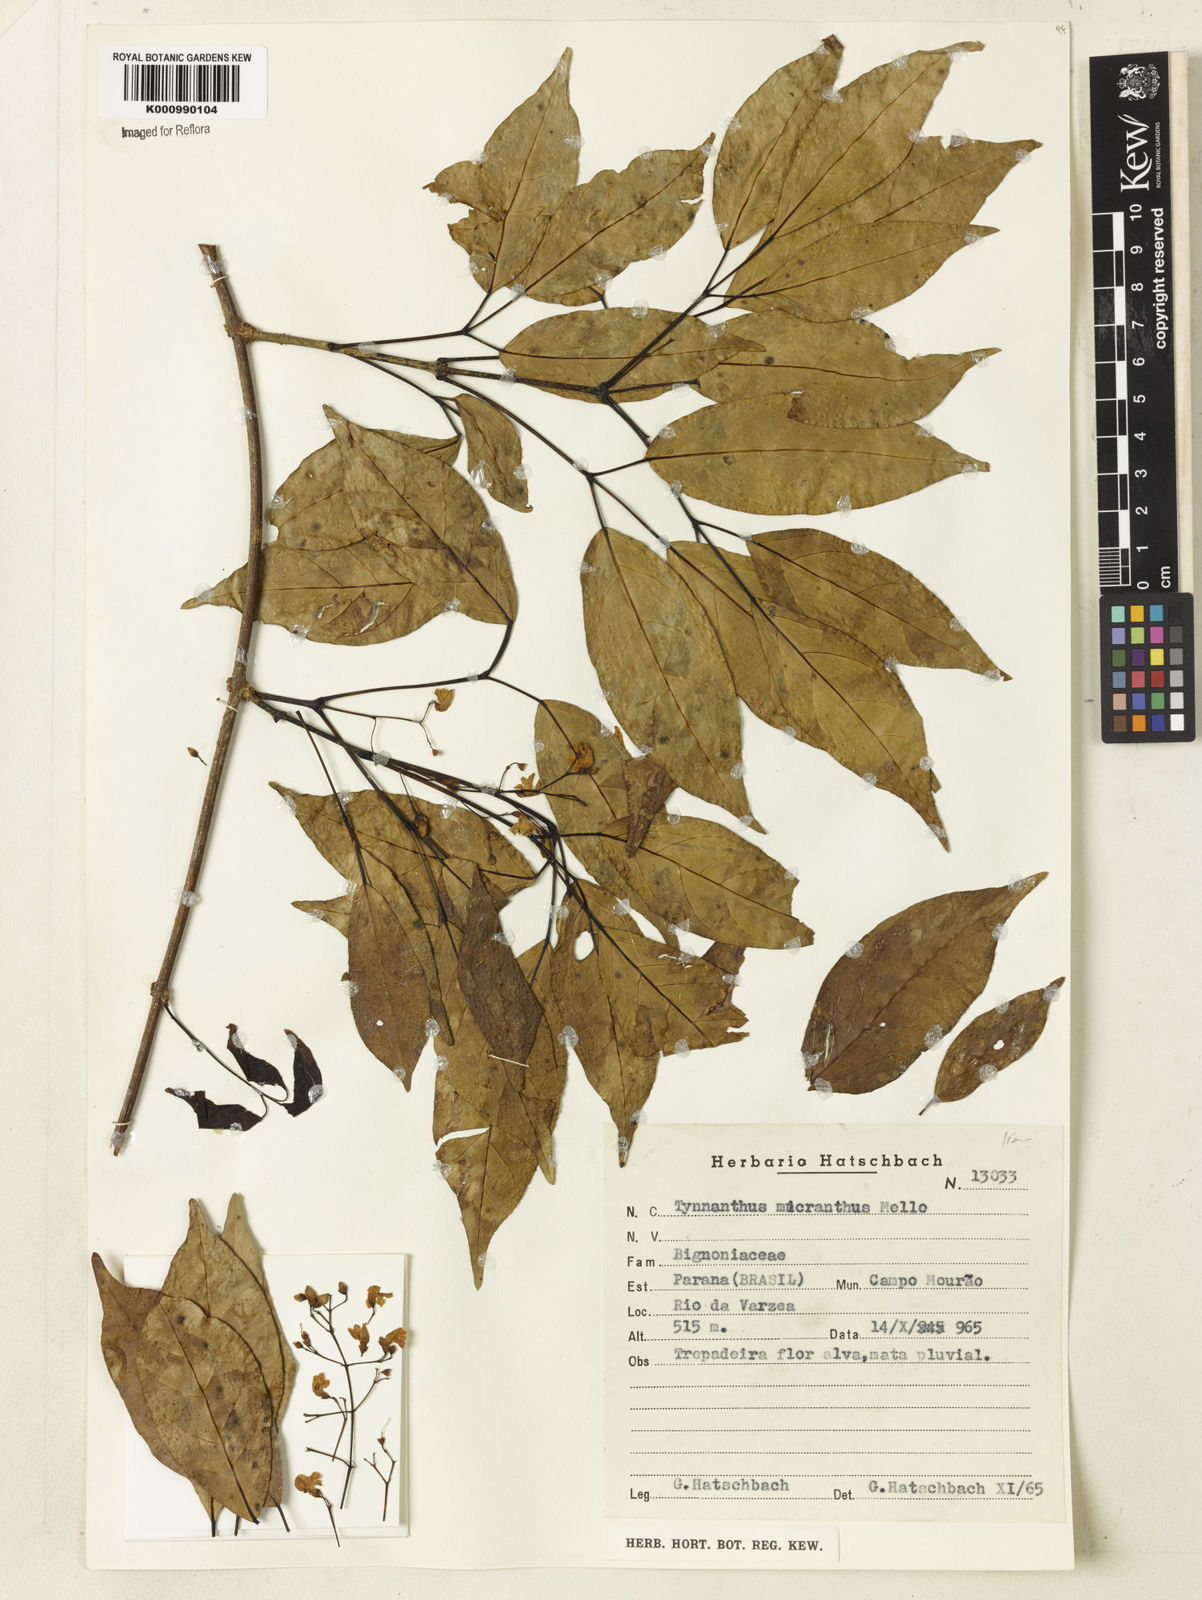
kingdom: Plantae
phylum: Tracheophyta
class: Magnoliopsida
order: Lamiales
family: Bignoniaceae
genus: Tynanthus
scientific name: Tynanthus
